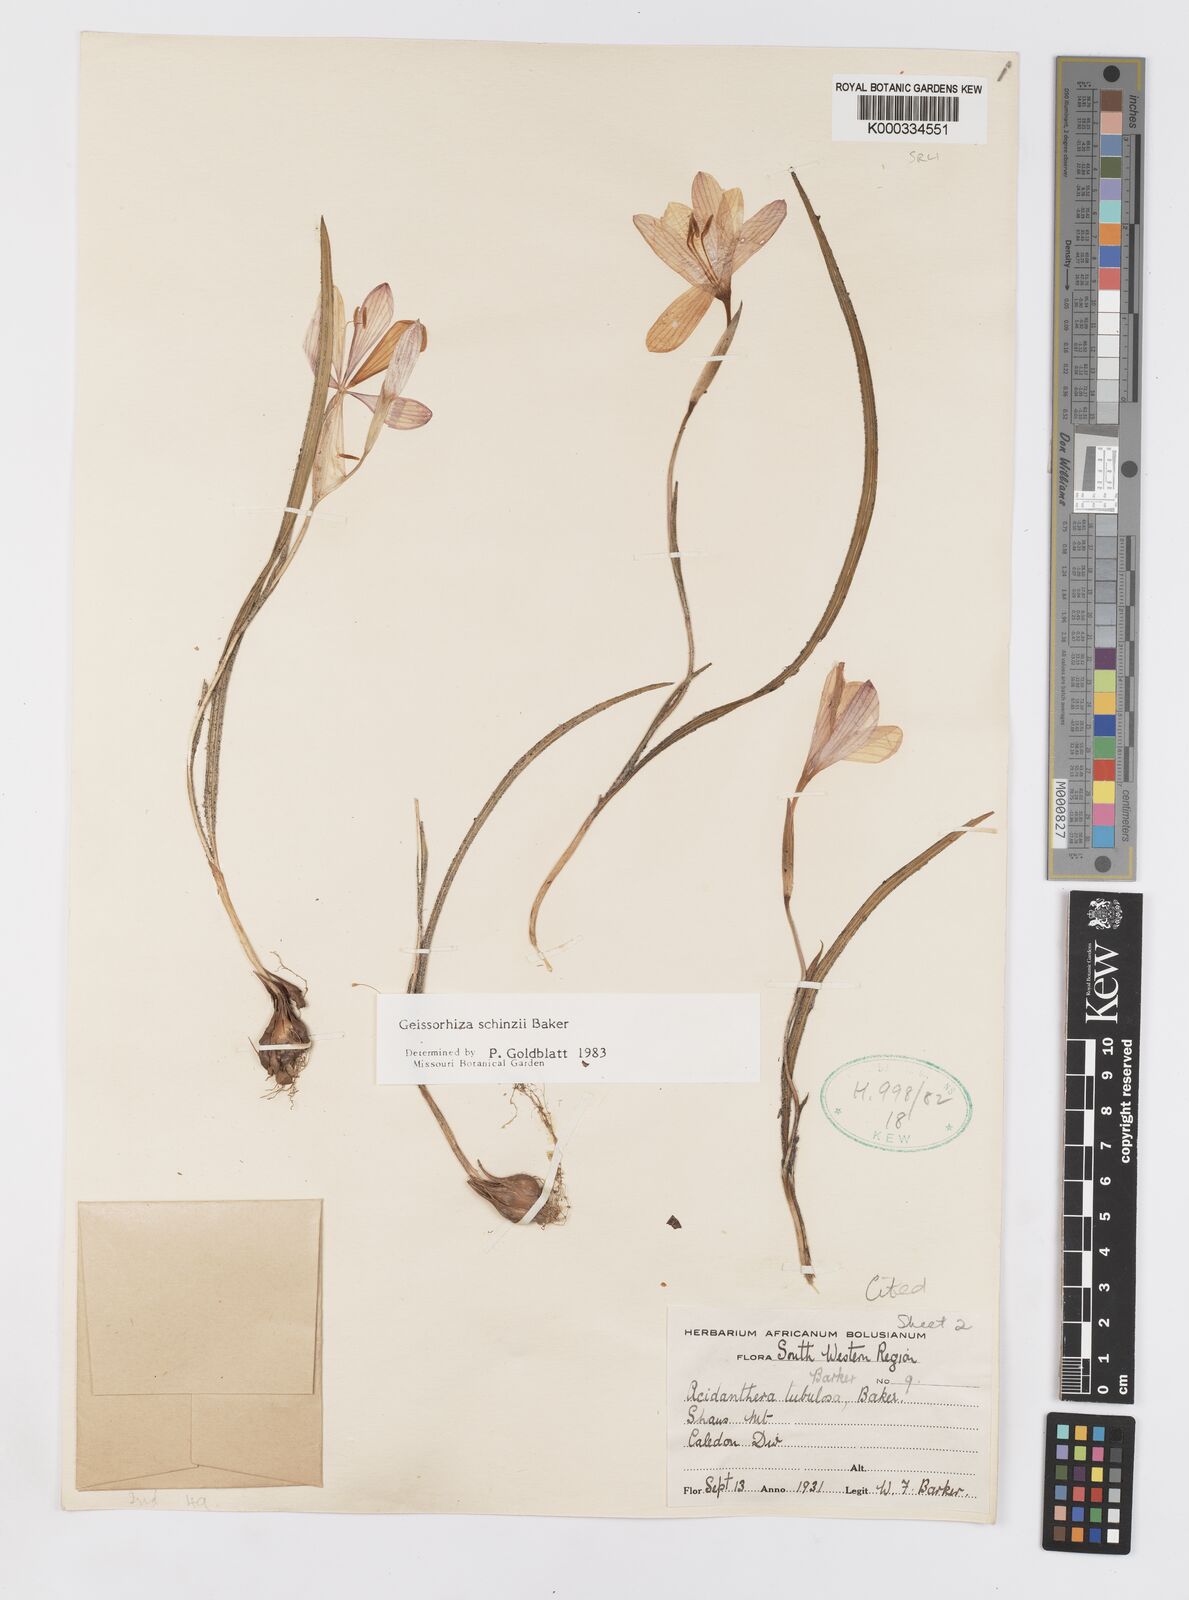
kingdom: Plantae
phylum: Tracheophyta
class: Liliopsida
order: Asparagales
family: Iridaceae
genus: Geissorhiza
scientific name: Geissorhiza schinzii
